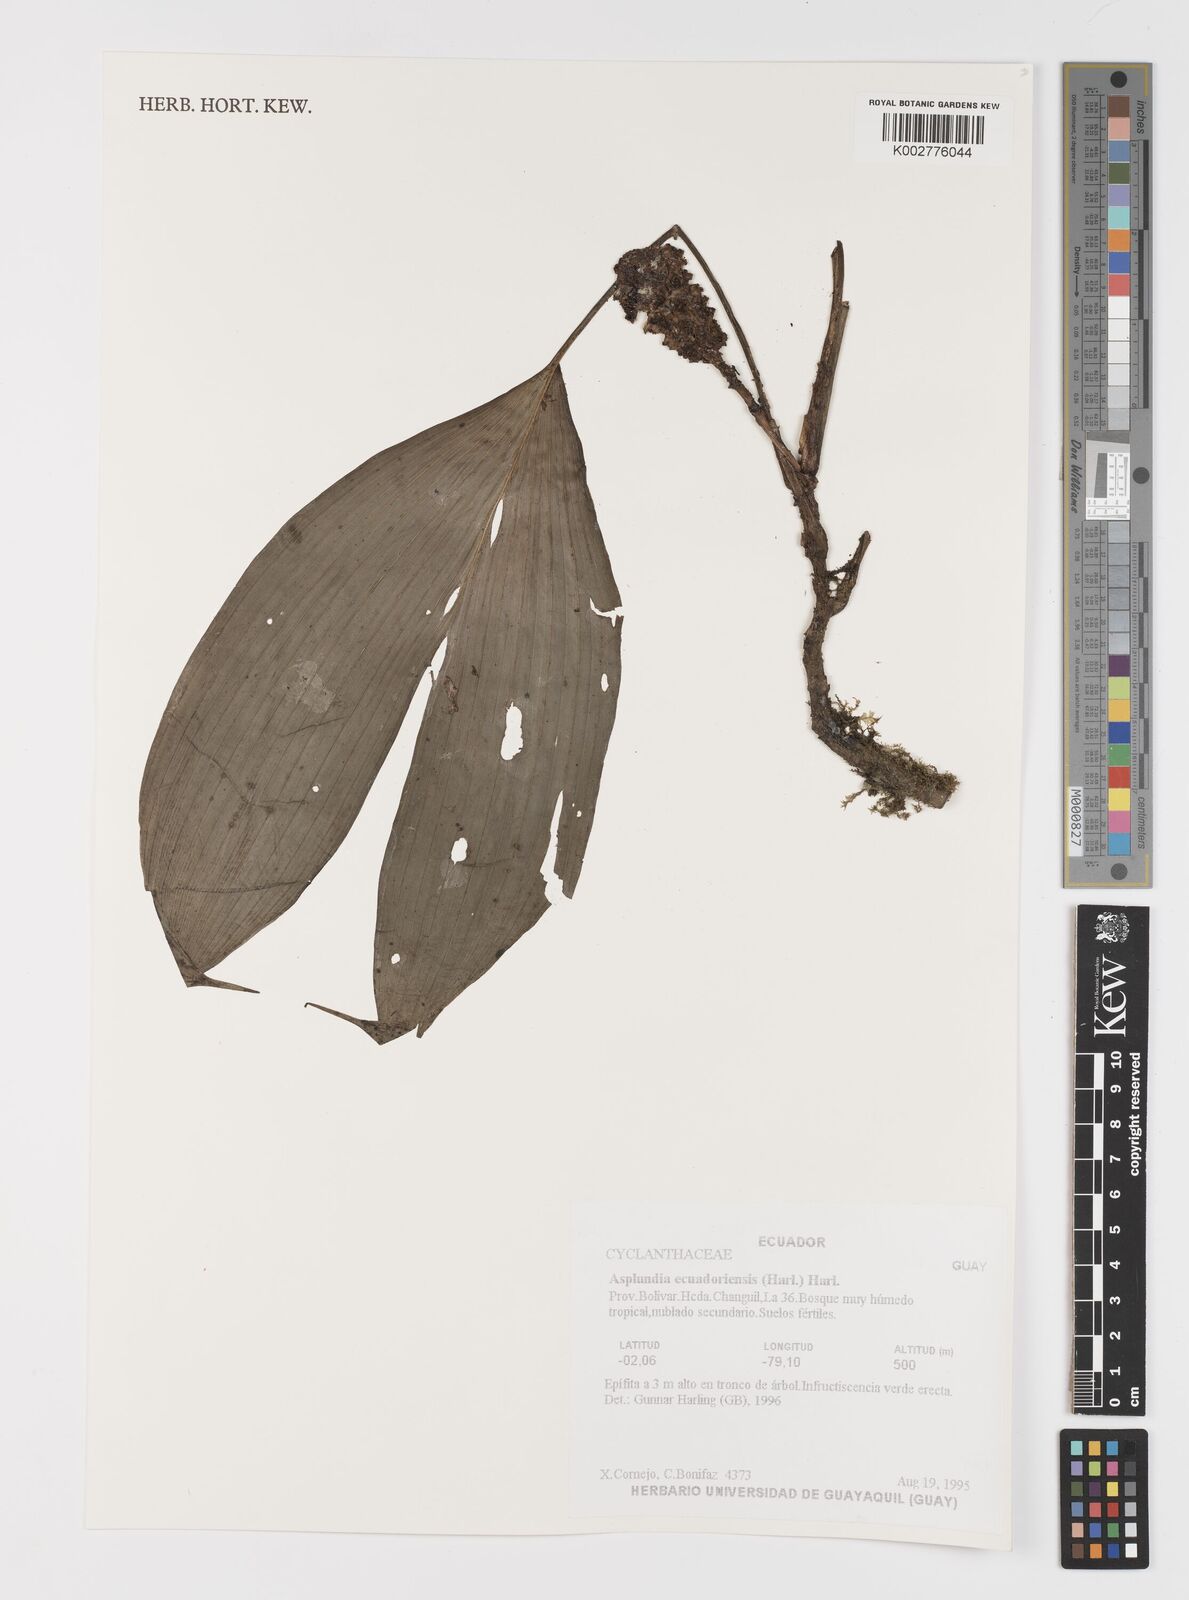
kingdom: Plantae
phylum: Tracheophyta
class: Liliopsida
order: Pandanales
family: Cyclanthaceae
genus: Asplundia
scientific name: Asplundia ecuadoriensis
